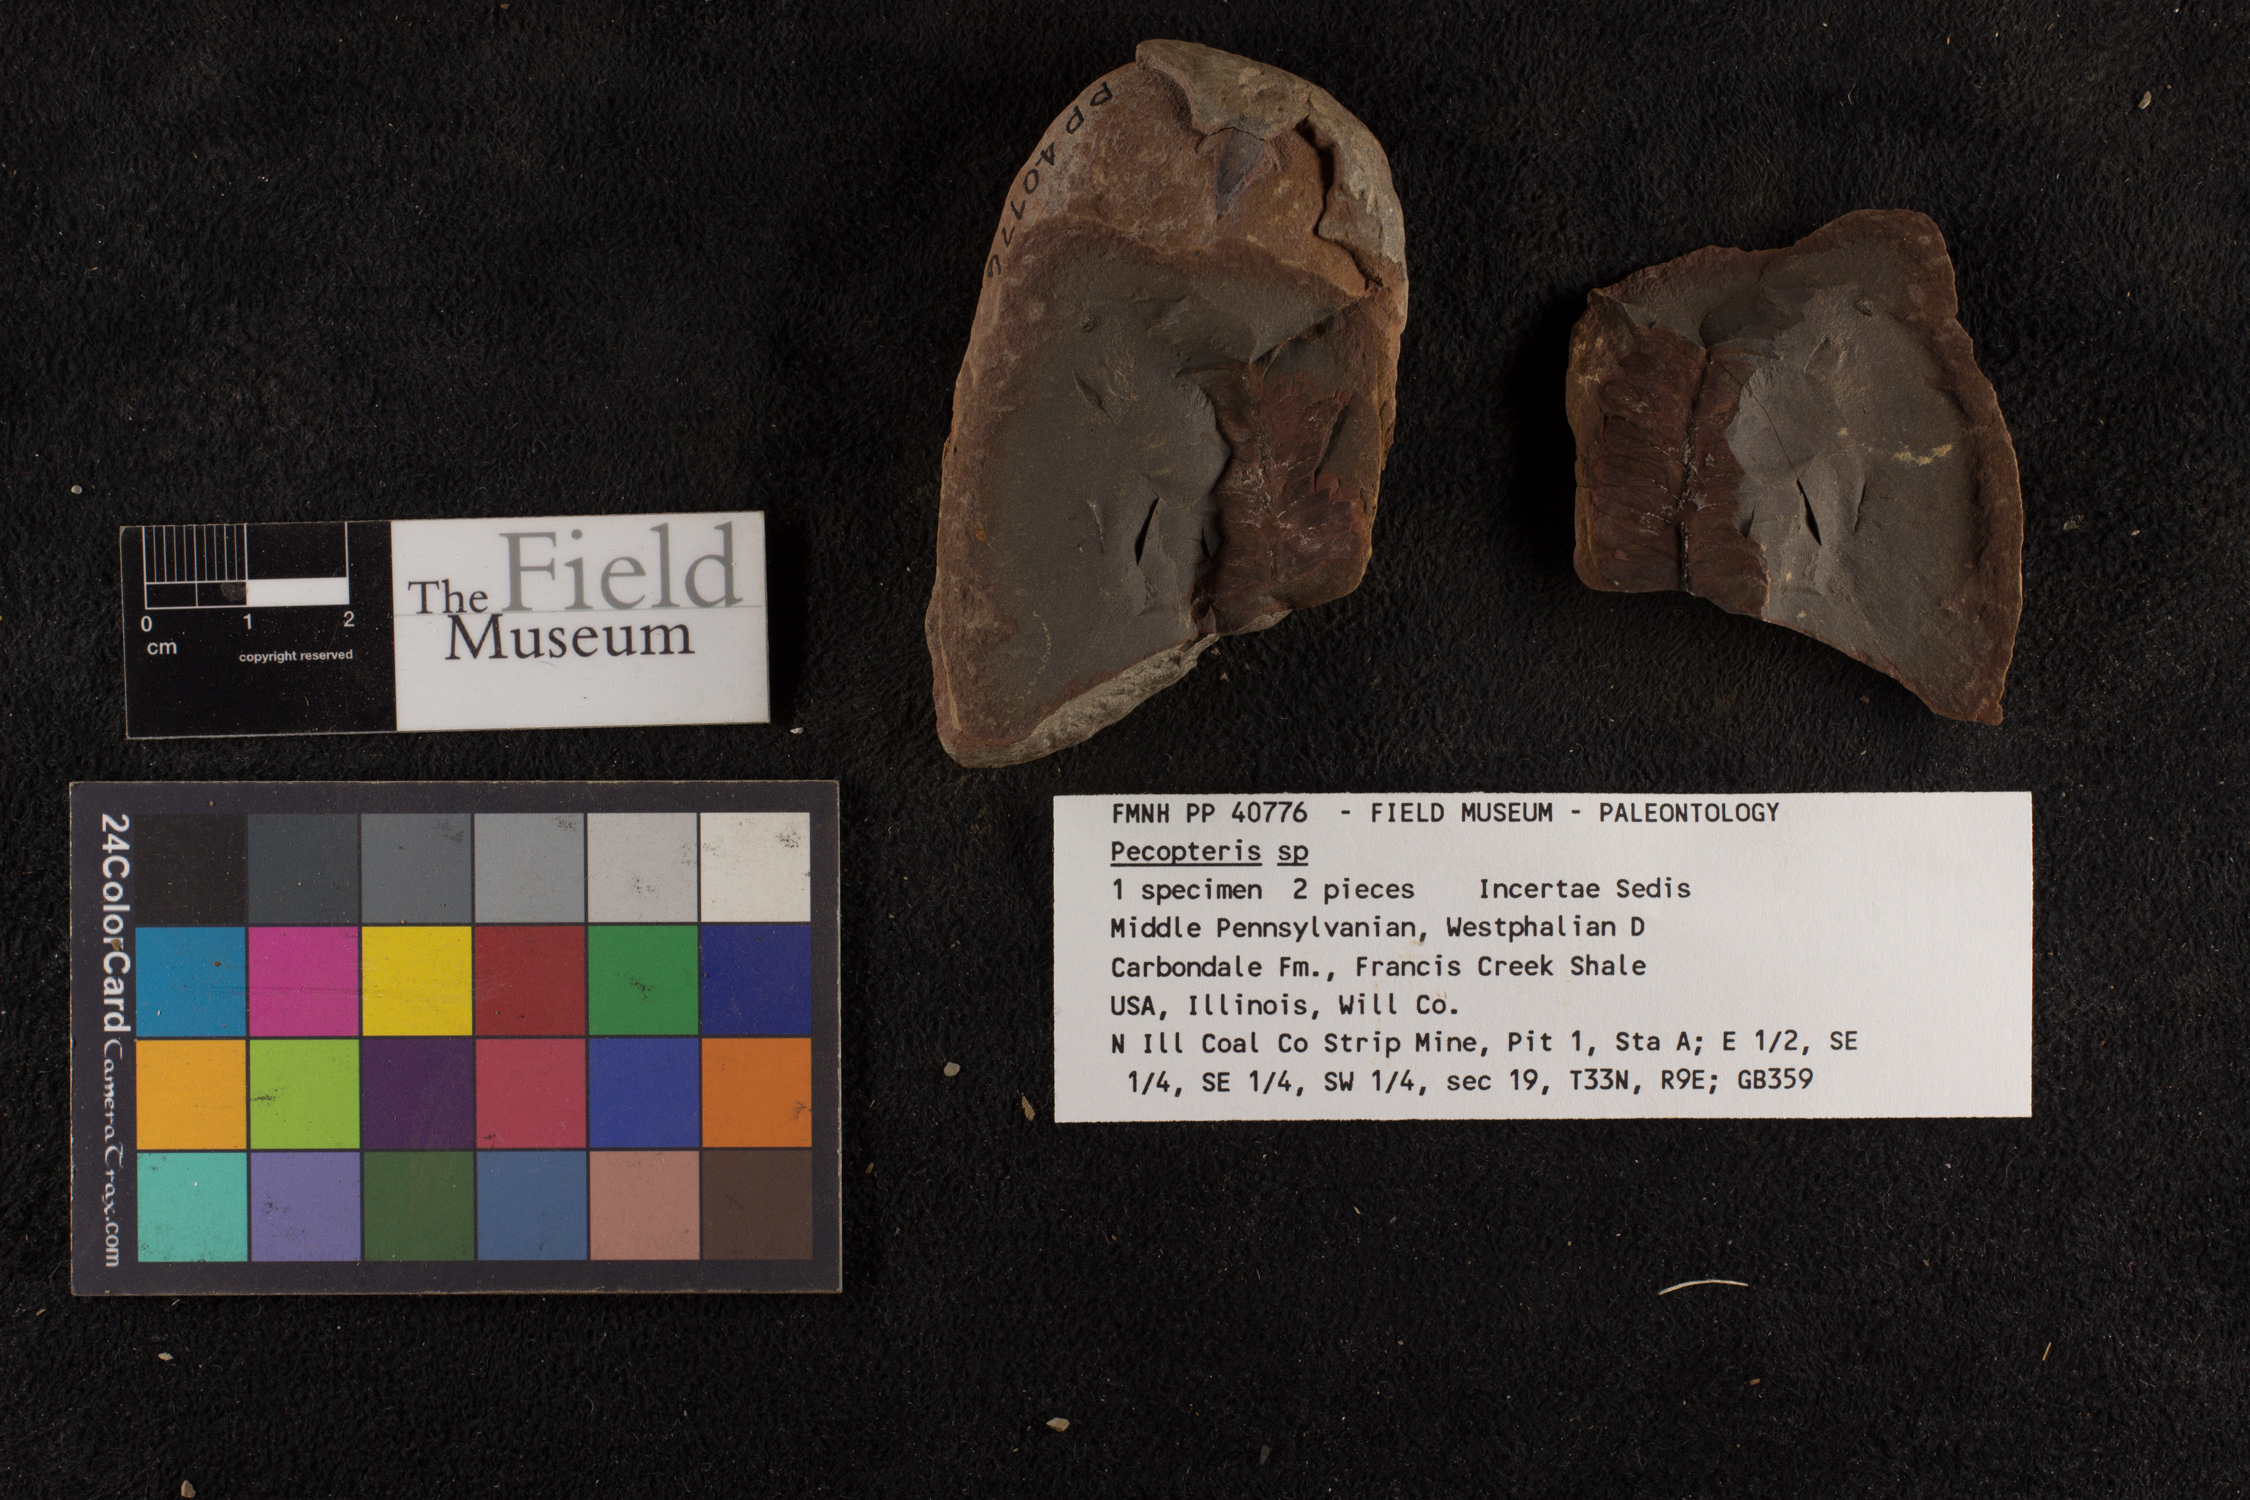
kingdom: Plantae
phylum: Tracheophyta
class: Polypodiopsida
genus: Diplazites
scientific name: Diplazites
